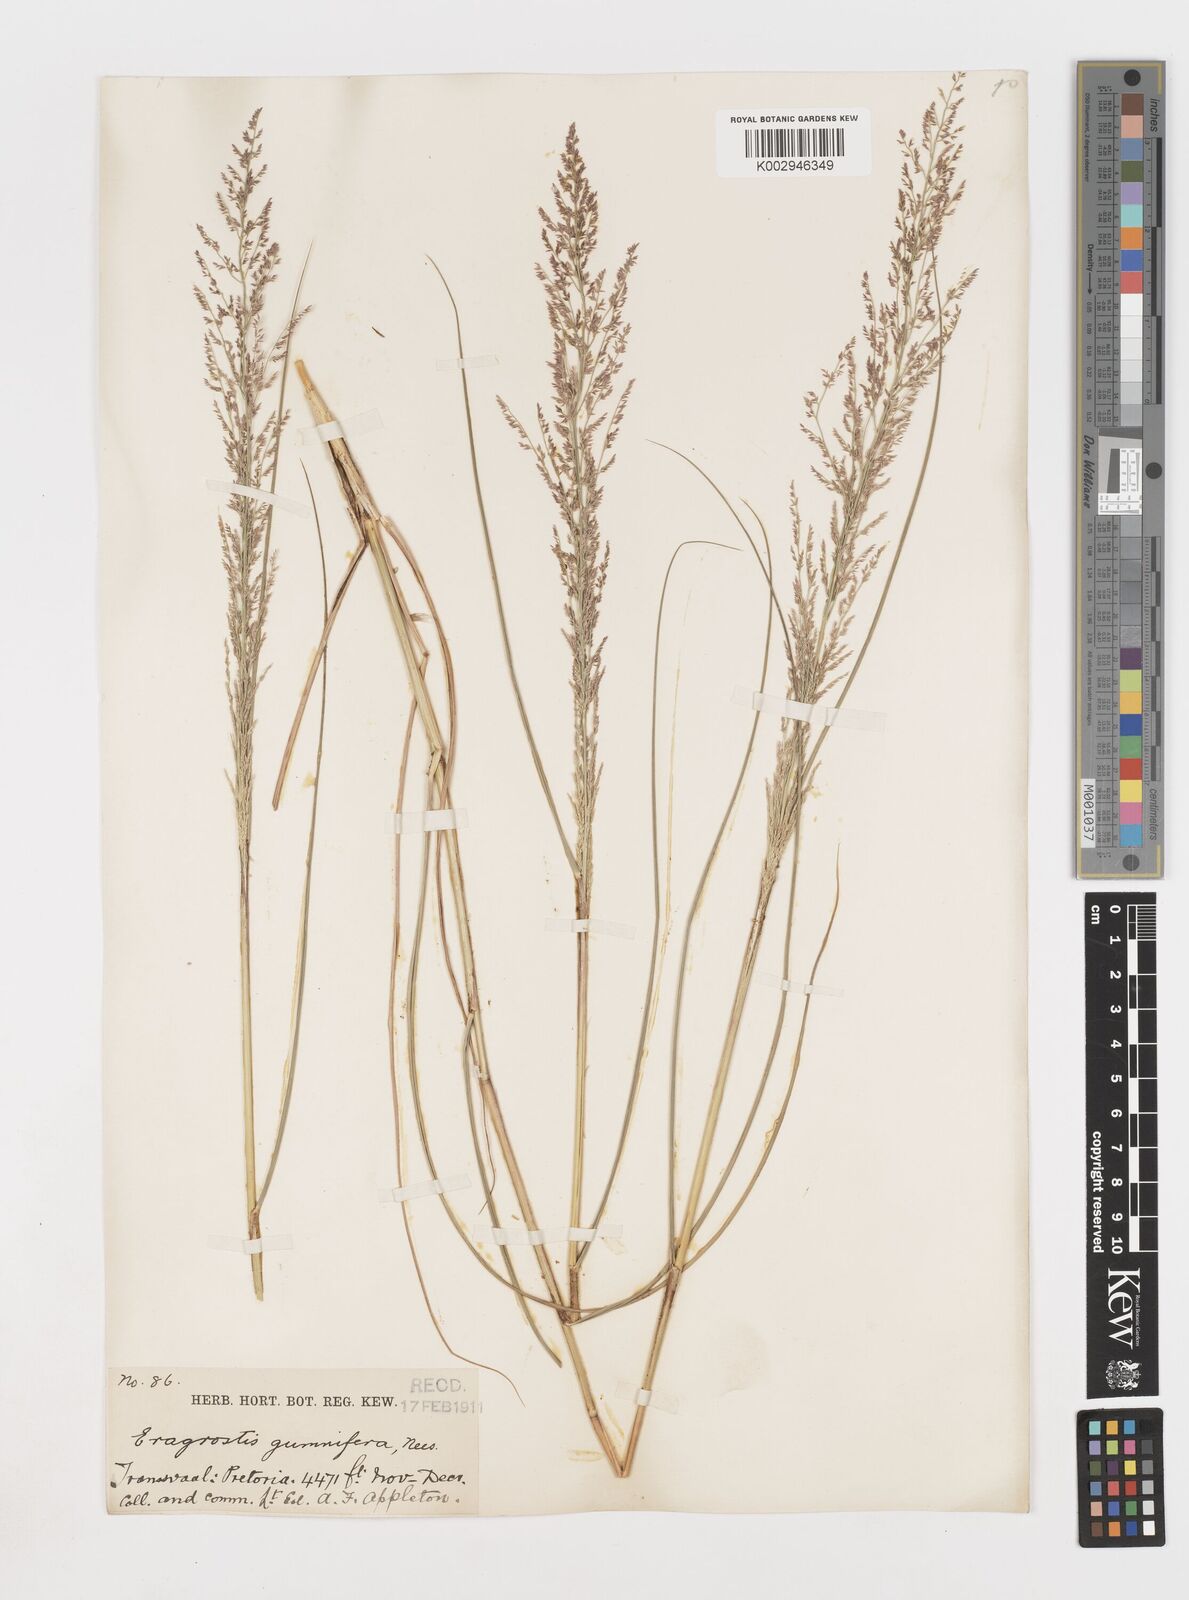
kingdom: Plantae
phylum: Tracheophyta
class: Liliopsida
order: Poales
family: Poaceae
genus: Eragrostis
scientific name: Eragrostis gummiflua
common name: Gum grass
